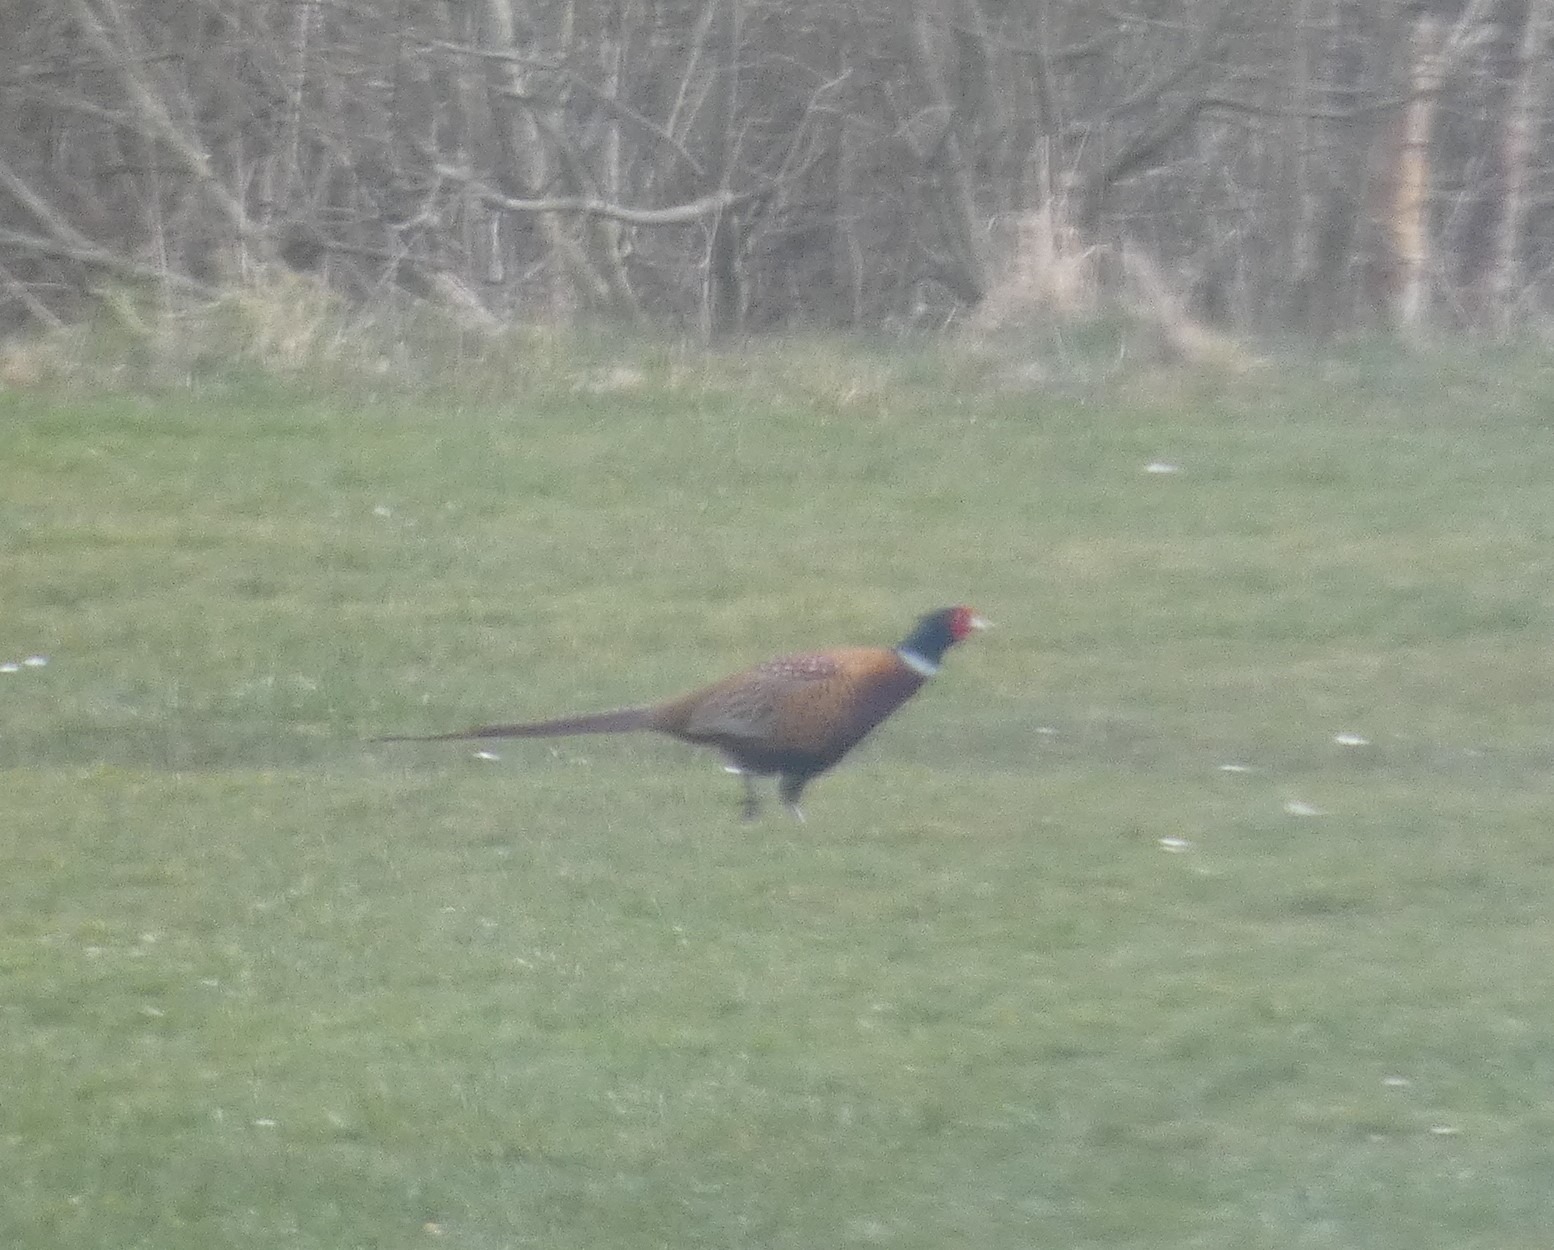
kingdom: Animalia
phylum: Chordata
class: Aves
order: Galliformes
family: Phasianidae
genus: Phasianus
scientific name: Phasianus colchicus
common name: Fasan
